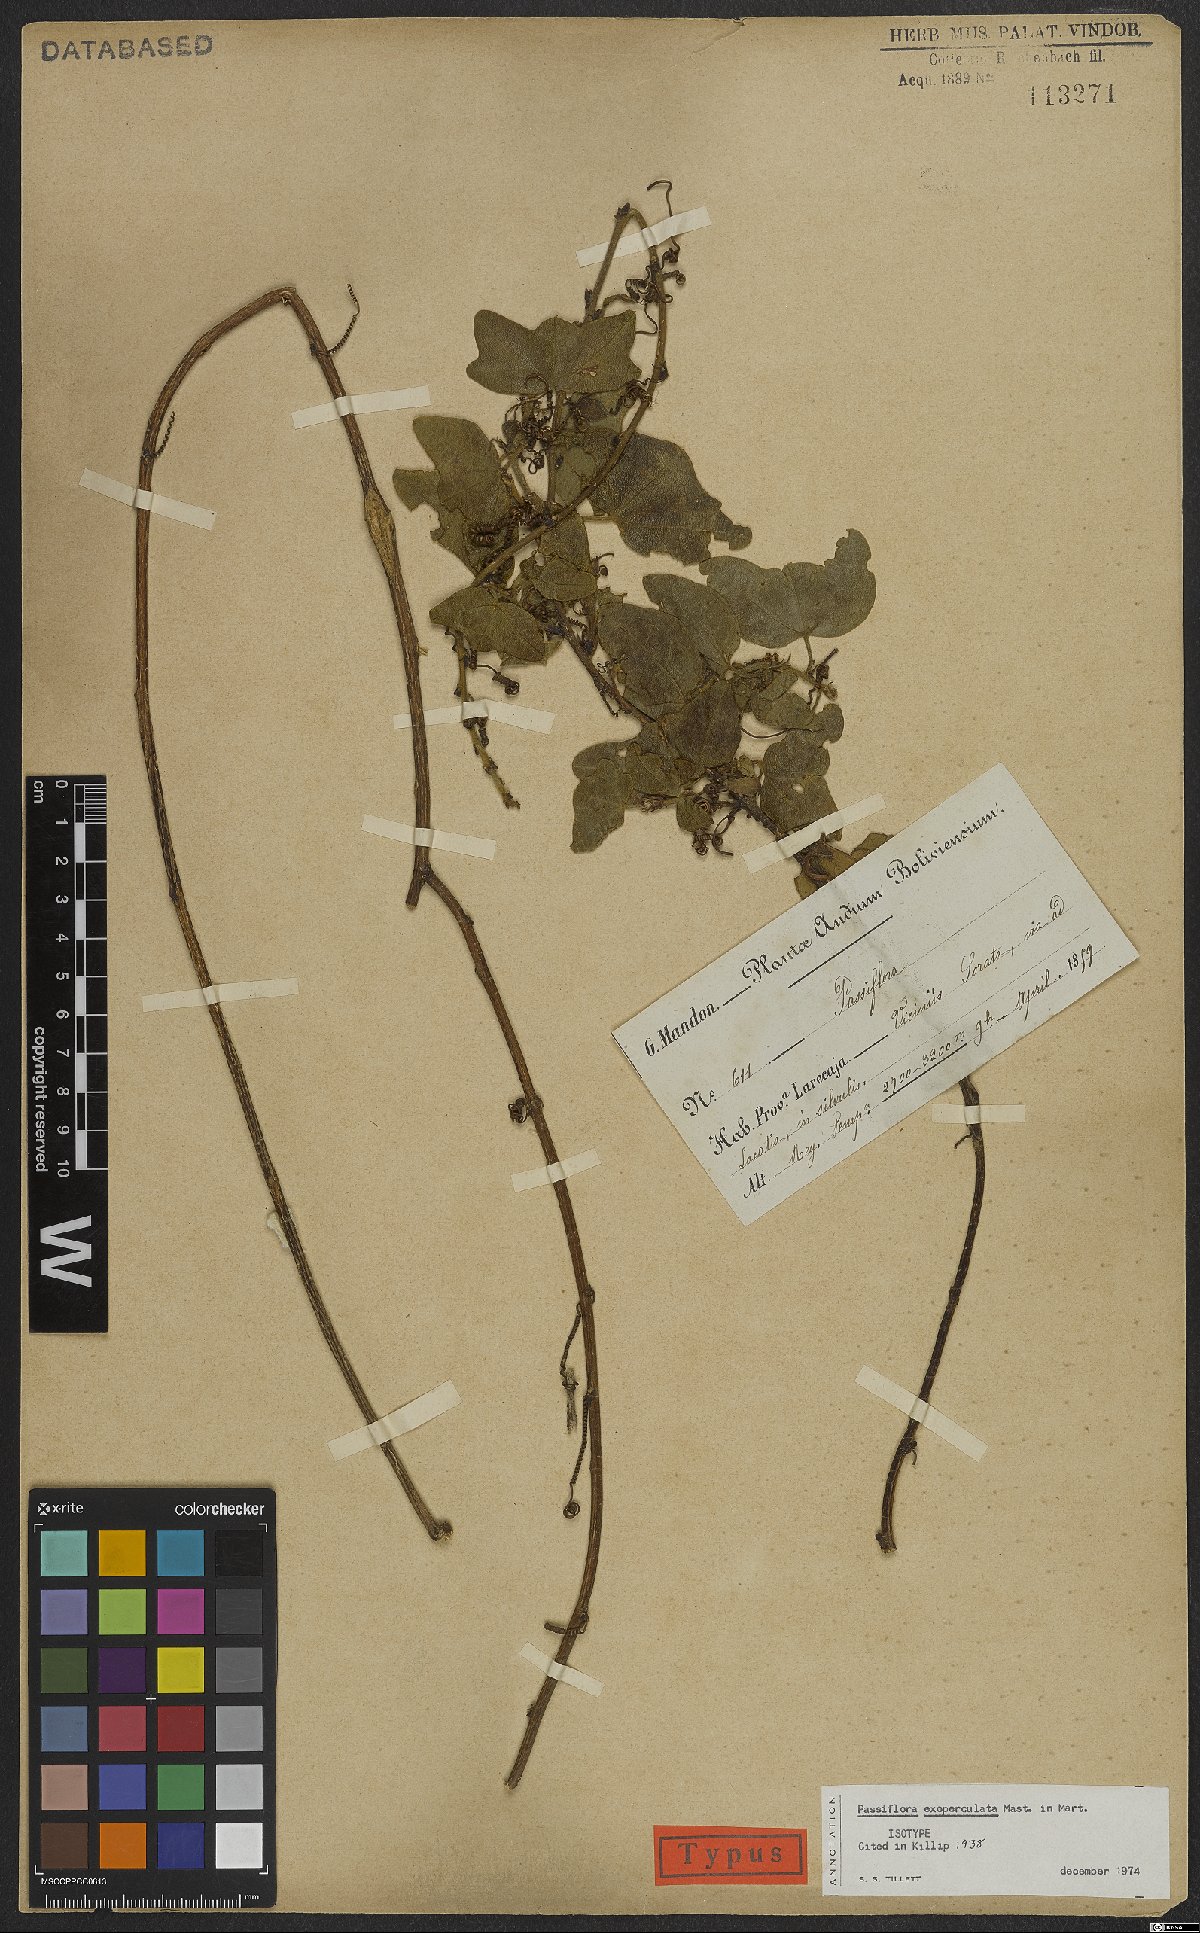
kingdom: Plantae
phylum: Tracheophyta
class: Magnoliopsida
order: Malpighiales
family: Passifloraceae
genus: Passiflora
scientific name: Passiflora exoperculata
